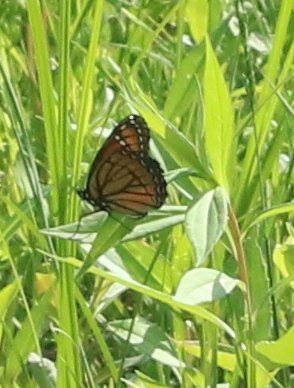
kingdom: Animalia
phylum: Arthropoda
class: Insecta
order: Lepidoptera
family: Nymphalidae
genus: Limenitis
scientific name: Limenitis archippus
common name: Viceroy
